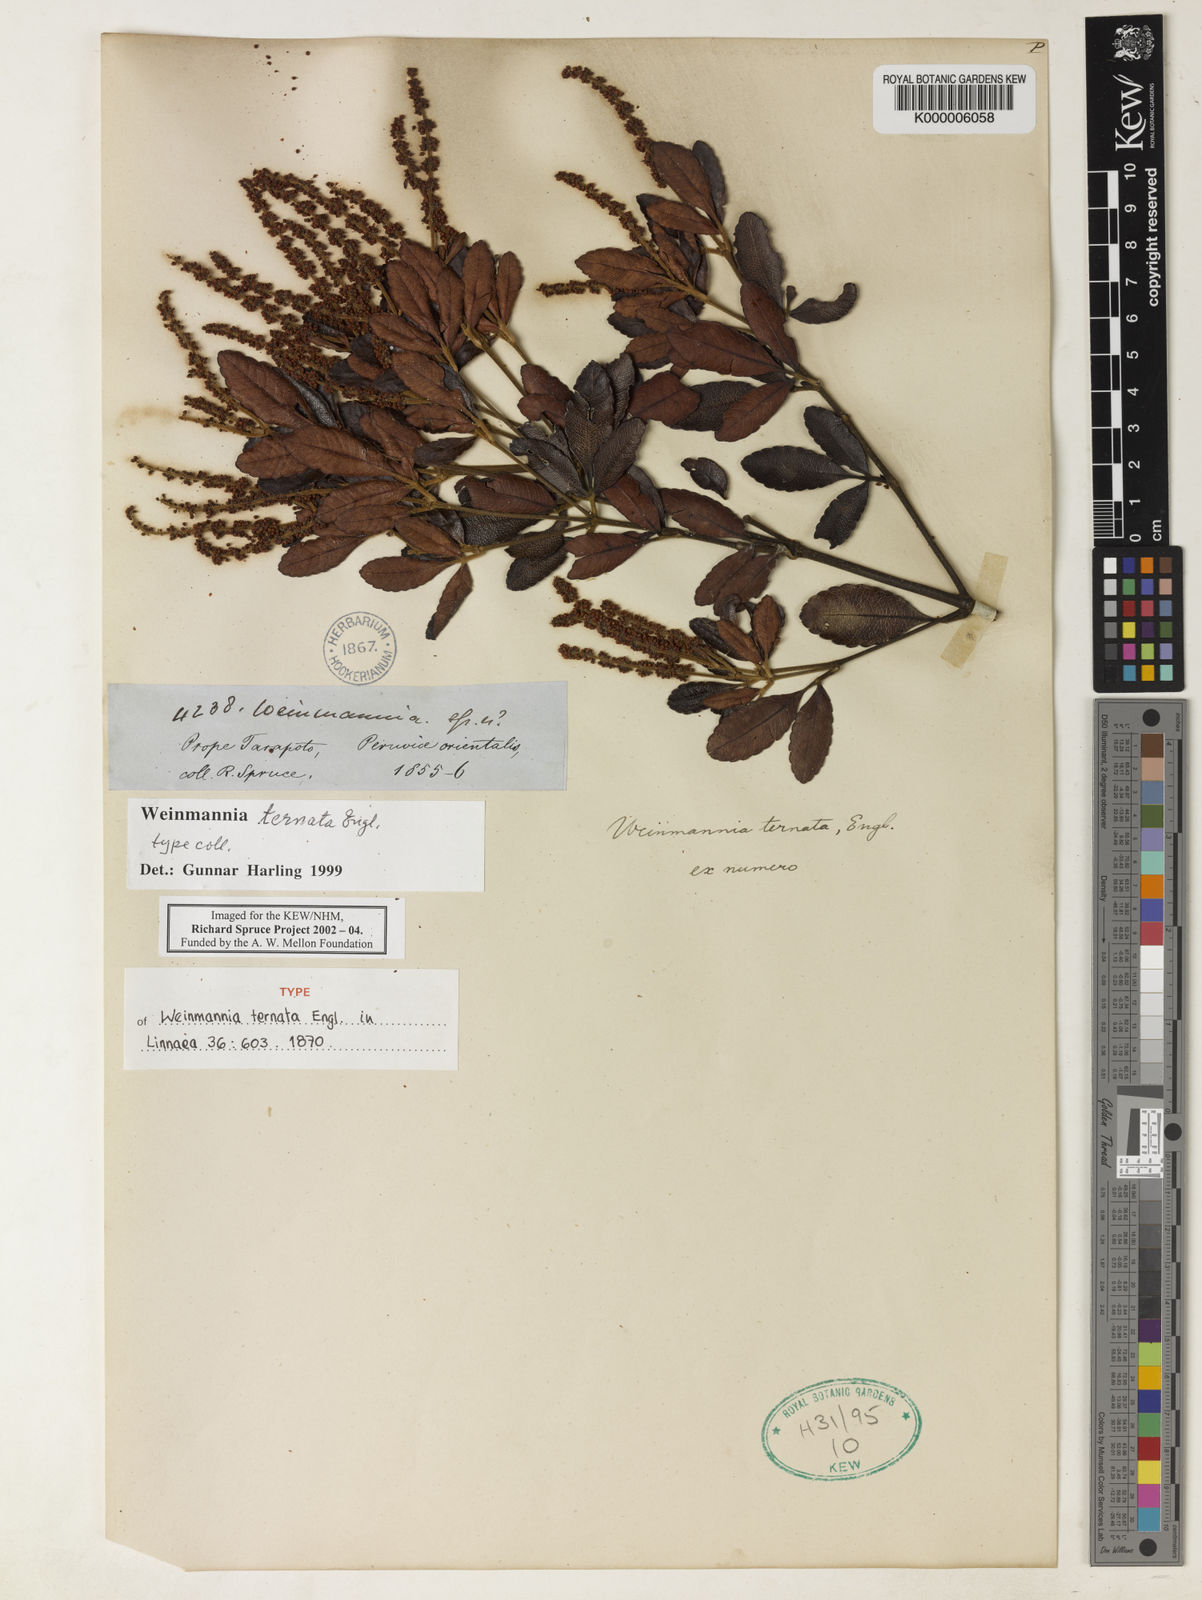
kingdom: Plantae
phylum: Tracheophyta
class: Magnoliopsida
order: Oxalidales
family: Cunoniaceae
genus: Weinmannia
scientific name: Weinmannia ternata
